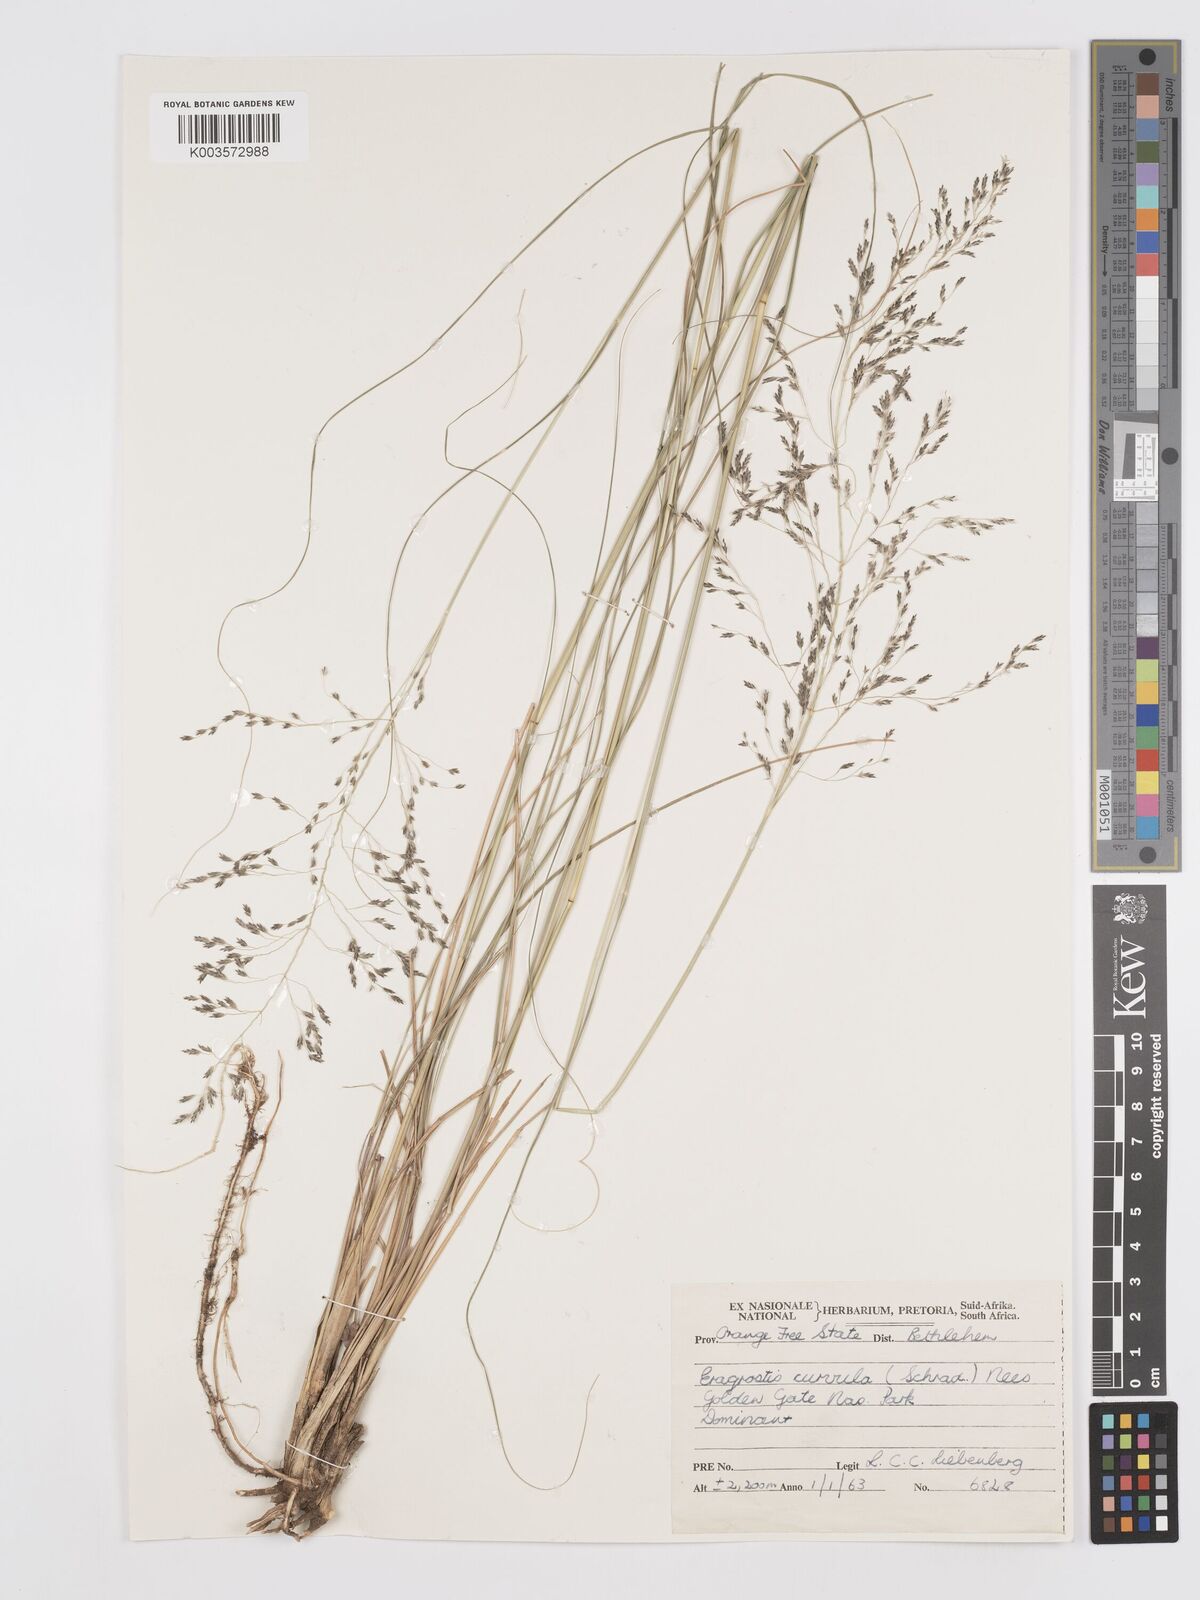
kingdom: Plantae
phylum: Tracheophyta
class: Liliopsida
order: Poales
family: Poaceae
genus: Eragrostis
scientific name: Eragrostis curvula
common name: African love-grass
